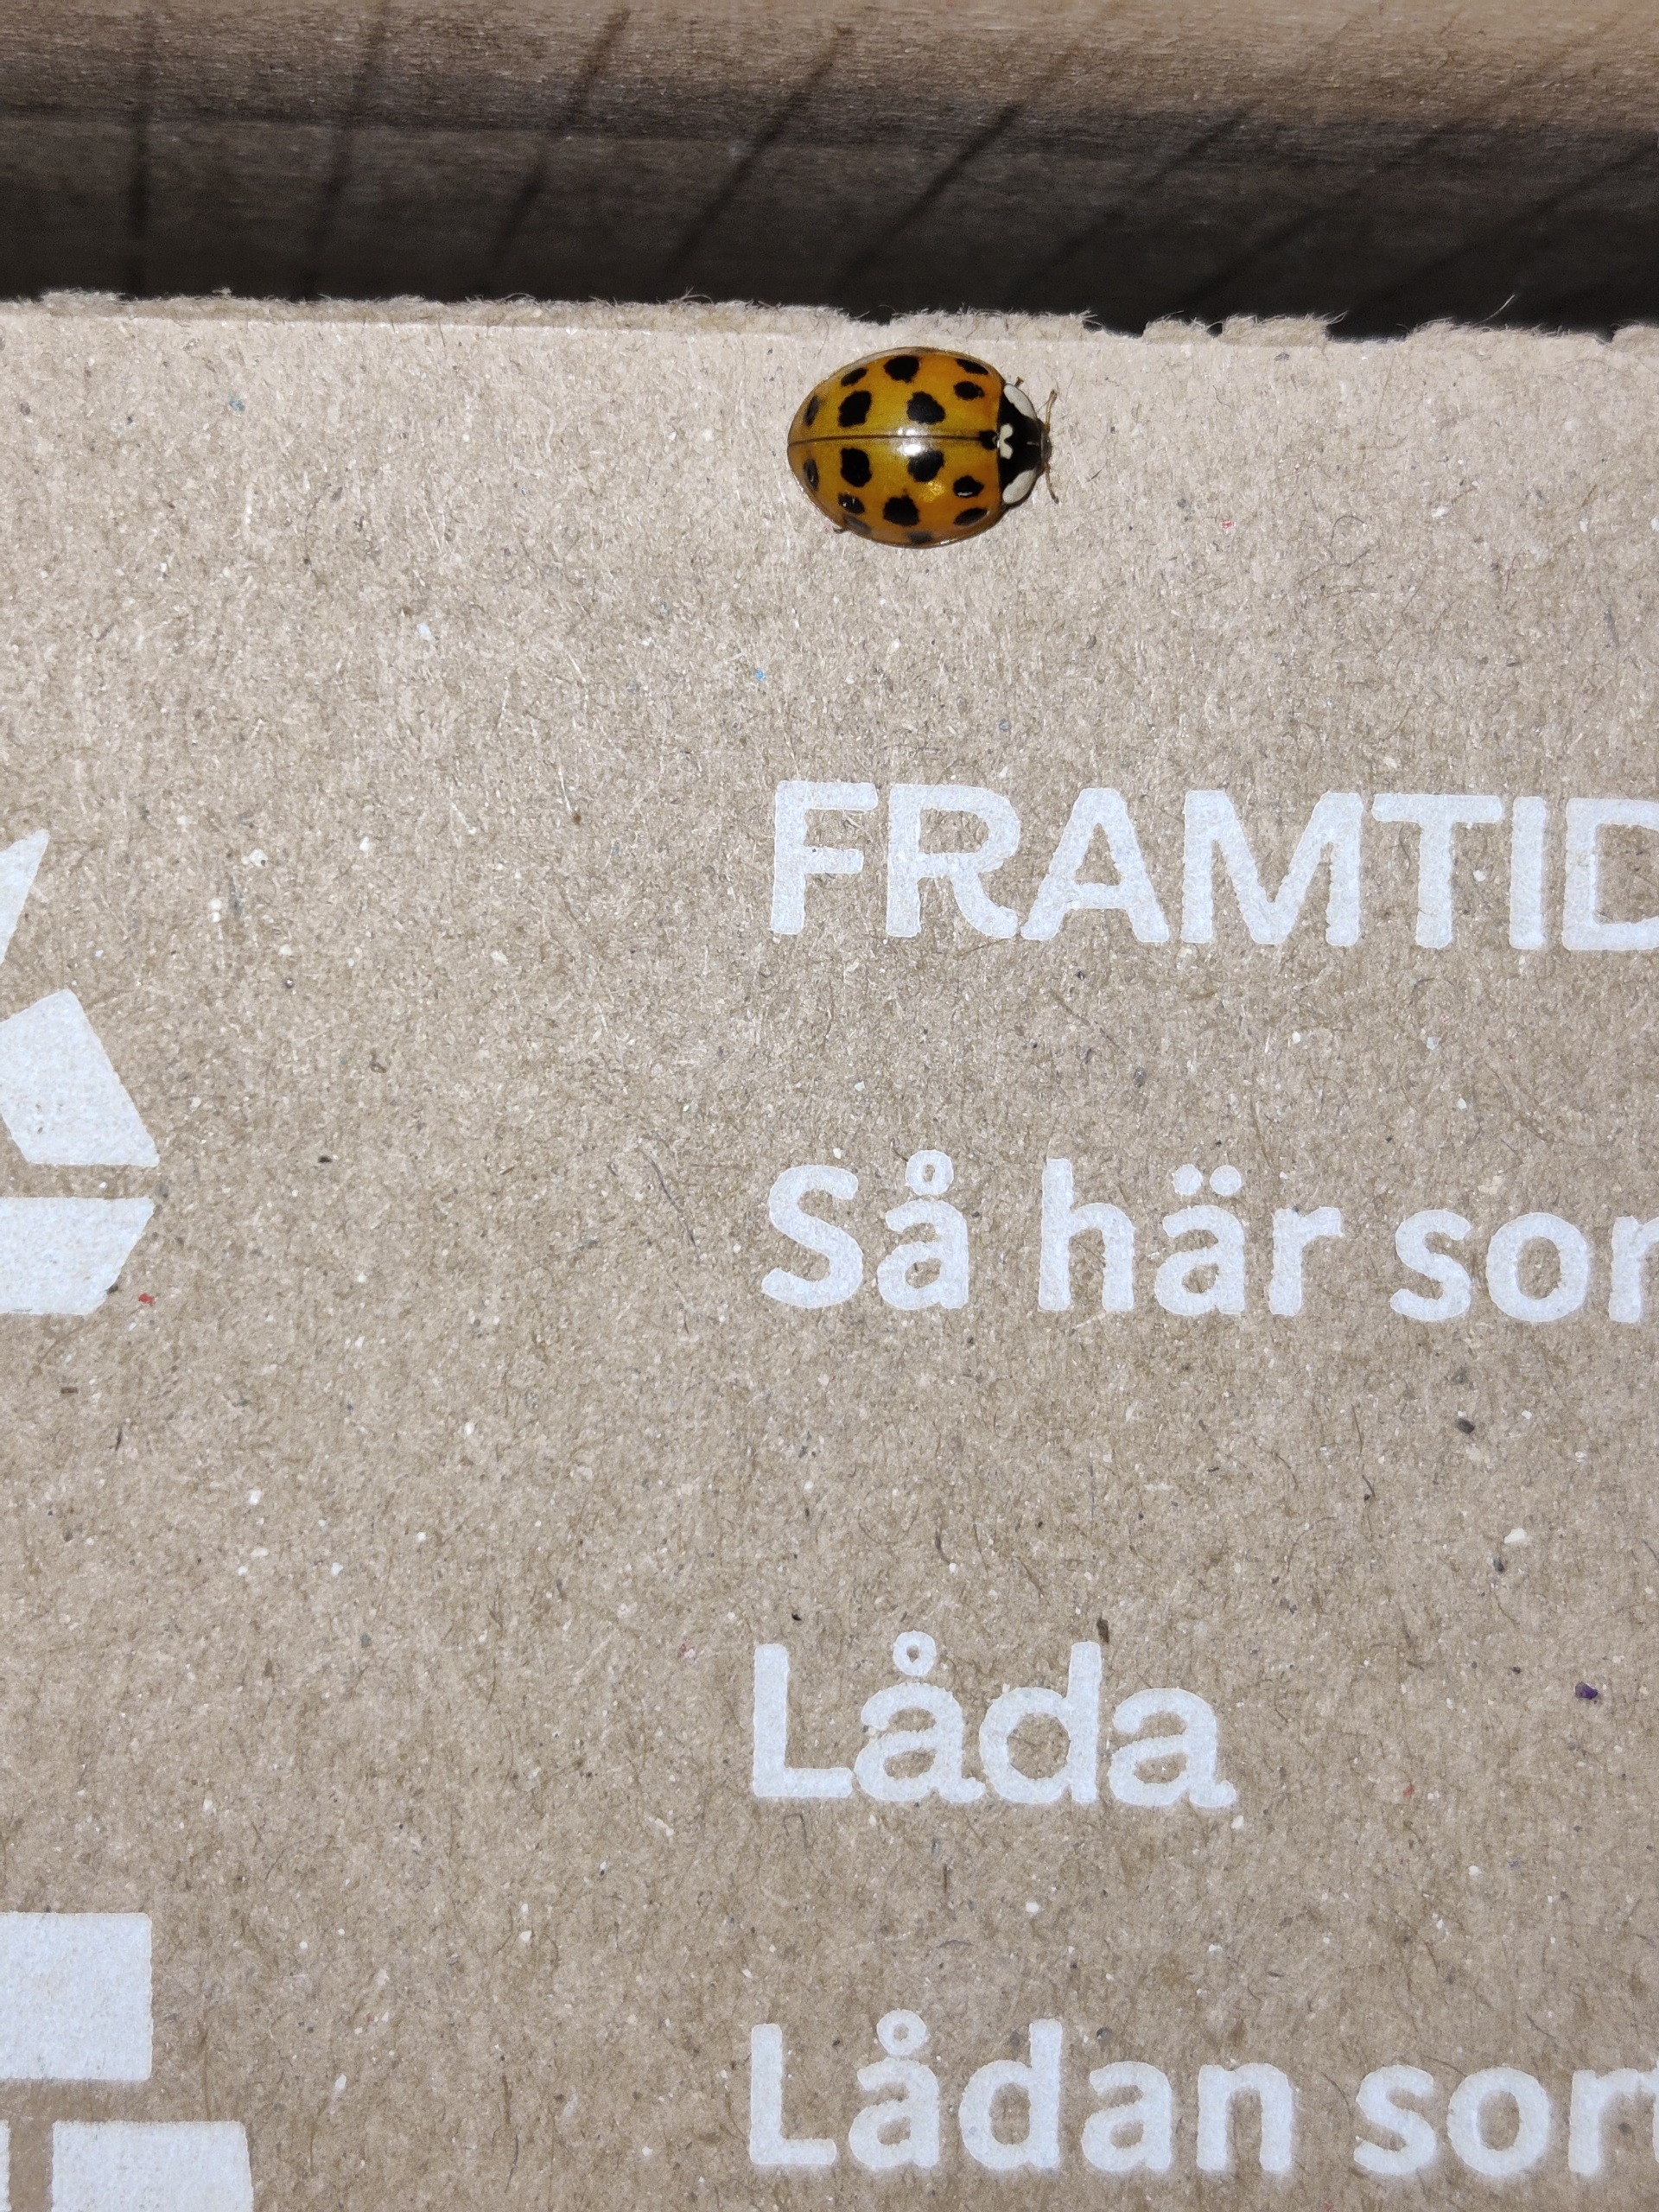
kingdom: Animalia
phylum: Arthropoda
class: Insecta
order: Coleoptera
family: Coccinellidae
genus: Harmonia
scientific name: Harmonia axyridis
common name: Harlekinmariehøne
